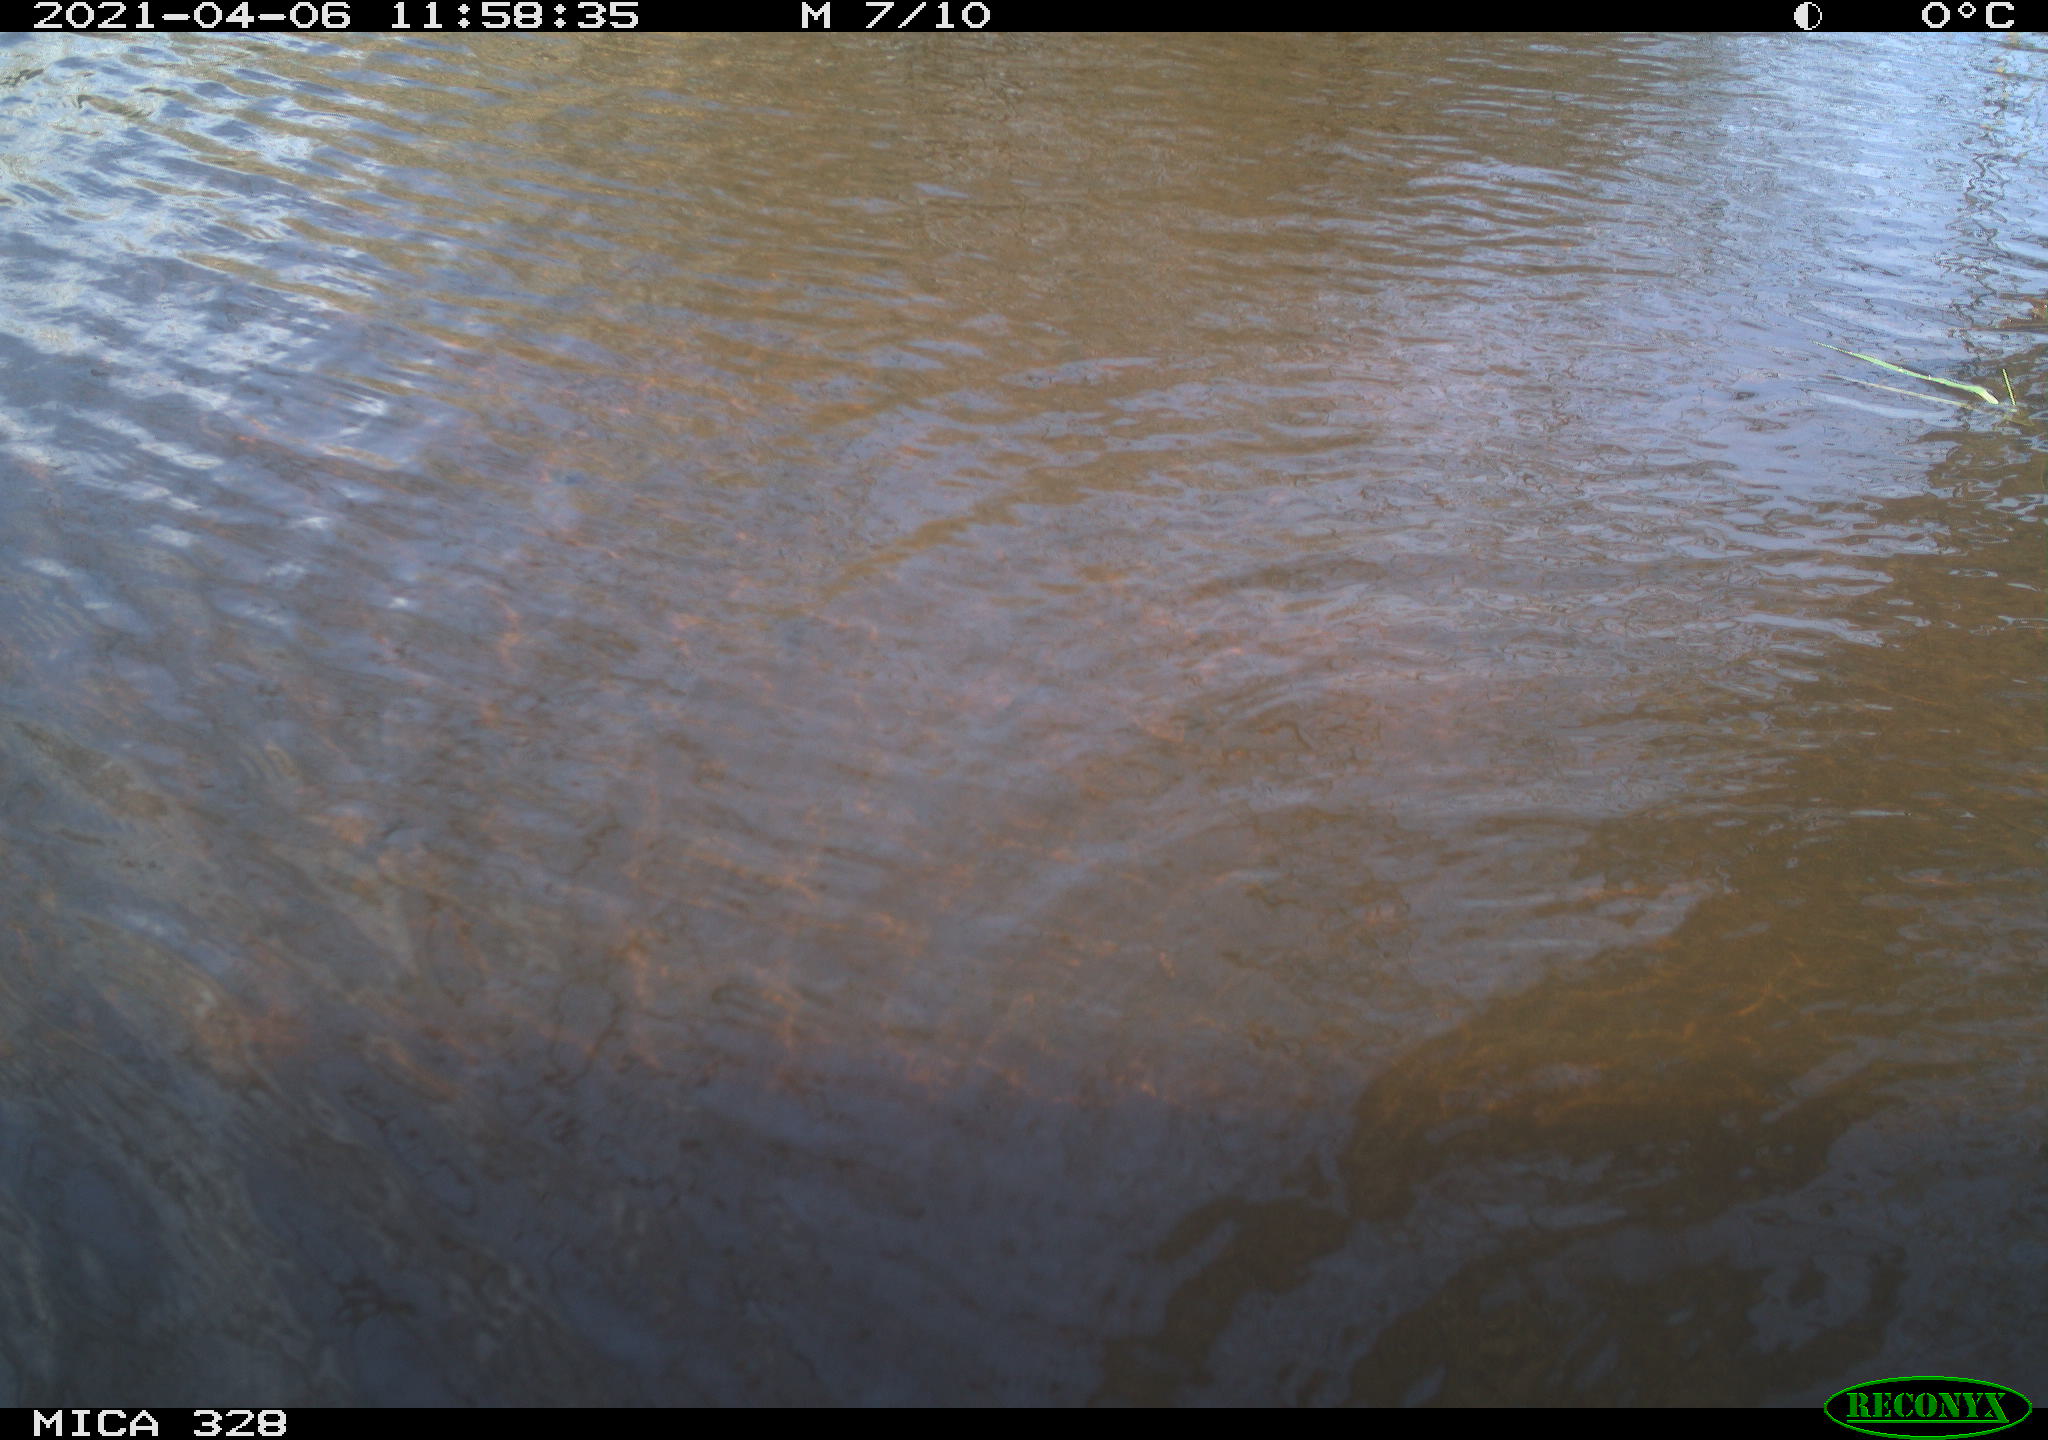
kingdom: Animalia
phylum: Chordata
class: Mammalia
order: Rodentia
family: Cricetidae
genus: Ondatra
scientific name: Ondatra zibethicus
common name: Muskrat
